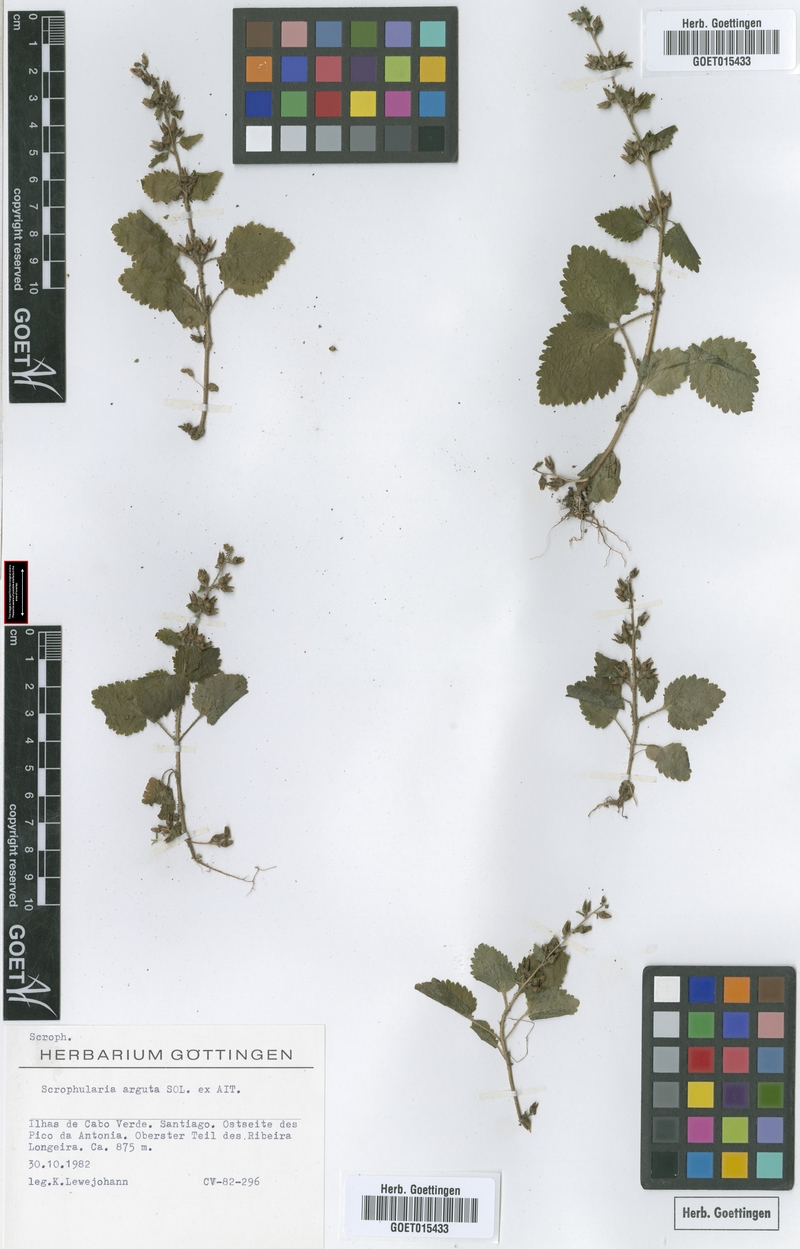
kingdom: Plantae
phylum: Tracheophyta
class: Magnoliopsida
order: Lamiales
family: Scrophulariaceae
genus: Scrophularia
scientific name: Scrophularia arguta
